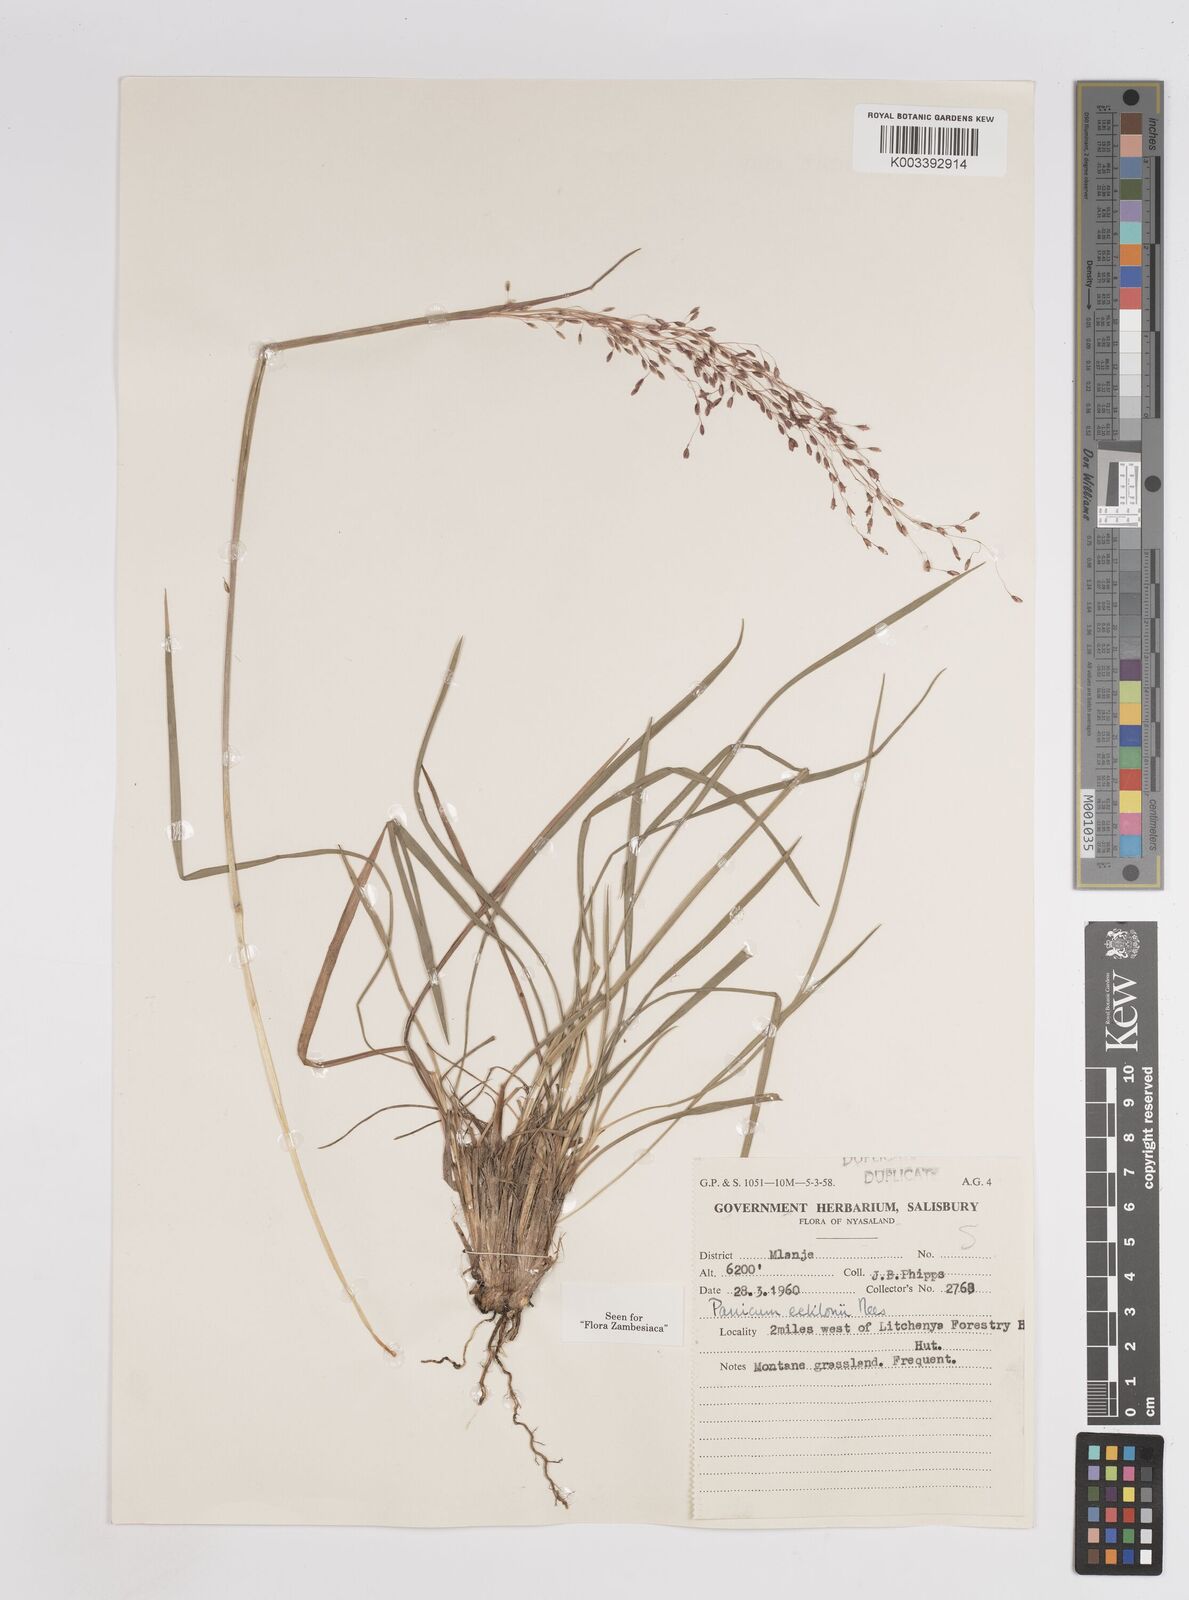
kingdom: Plantae
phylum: Tracheophyta
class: Liliopsida
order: Poales
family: Poaceae
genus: Adenochloa
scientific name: Adenochloa ecklonii
